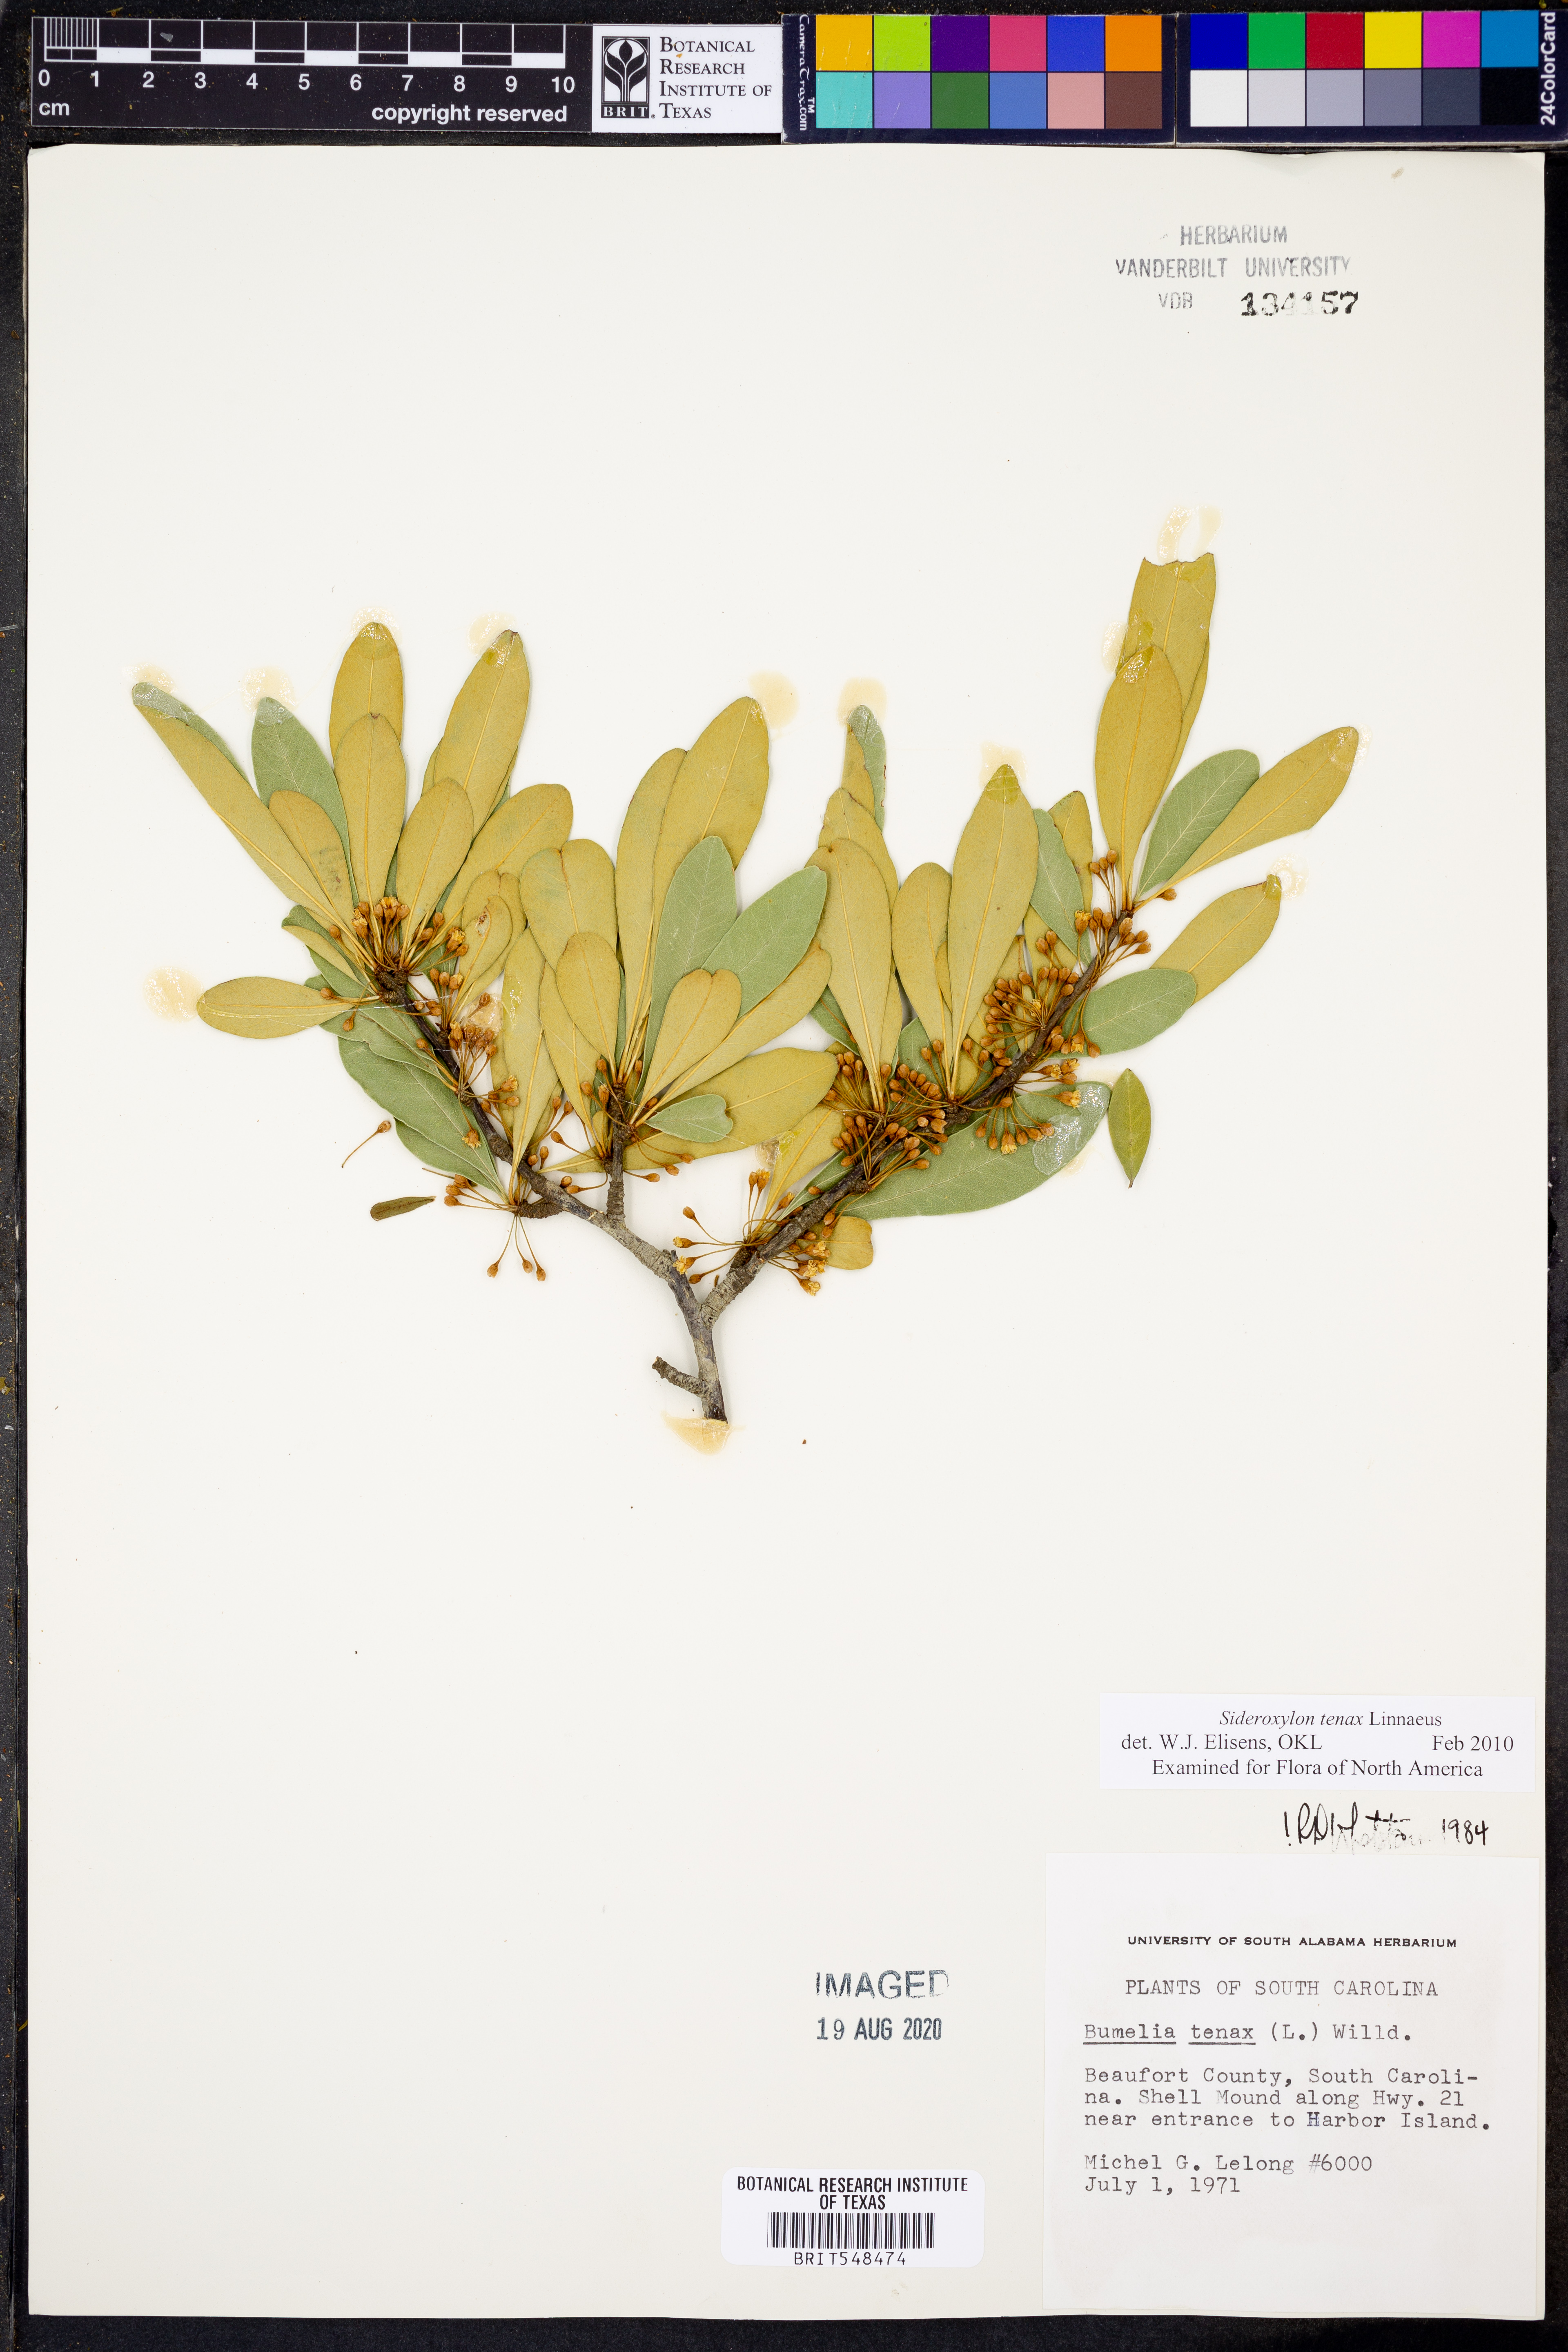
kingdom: Plantae
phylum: Tracheophyta
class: Magnoliopsida
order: Ericales
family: Sapotaceae
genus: Sideroxylon
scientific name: Sideroxylon tenax
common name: Tough-buckthorn
